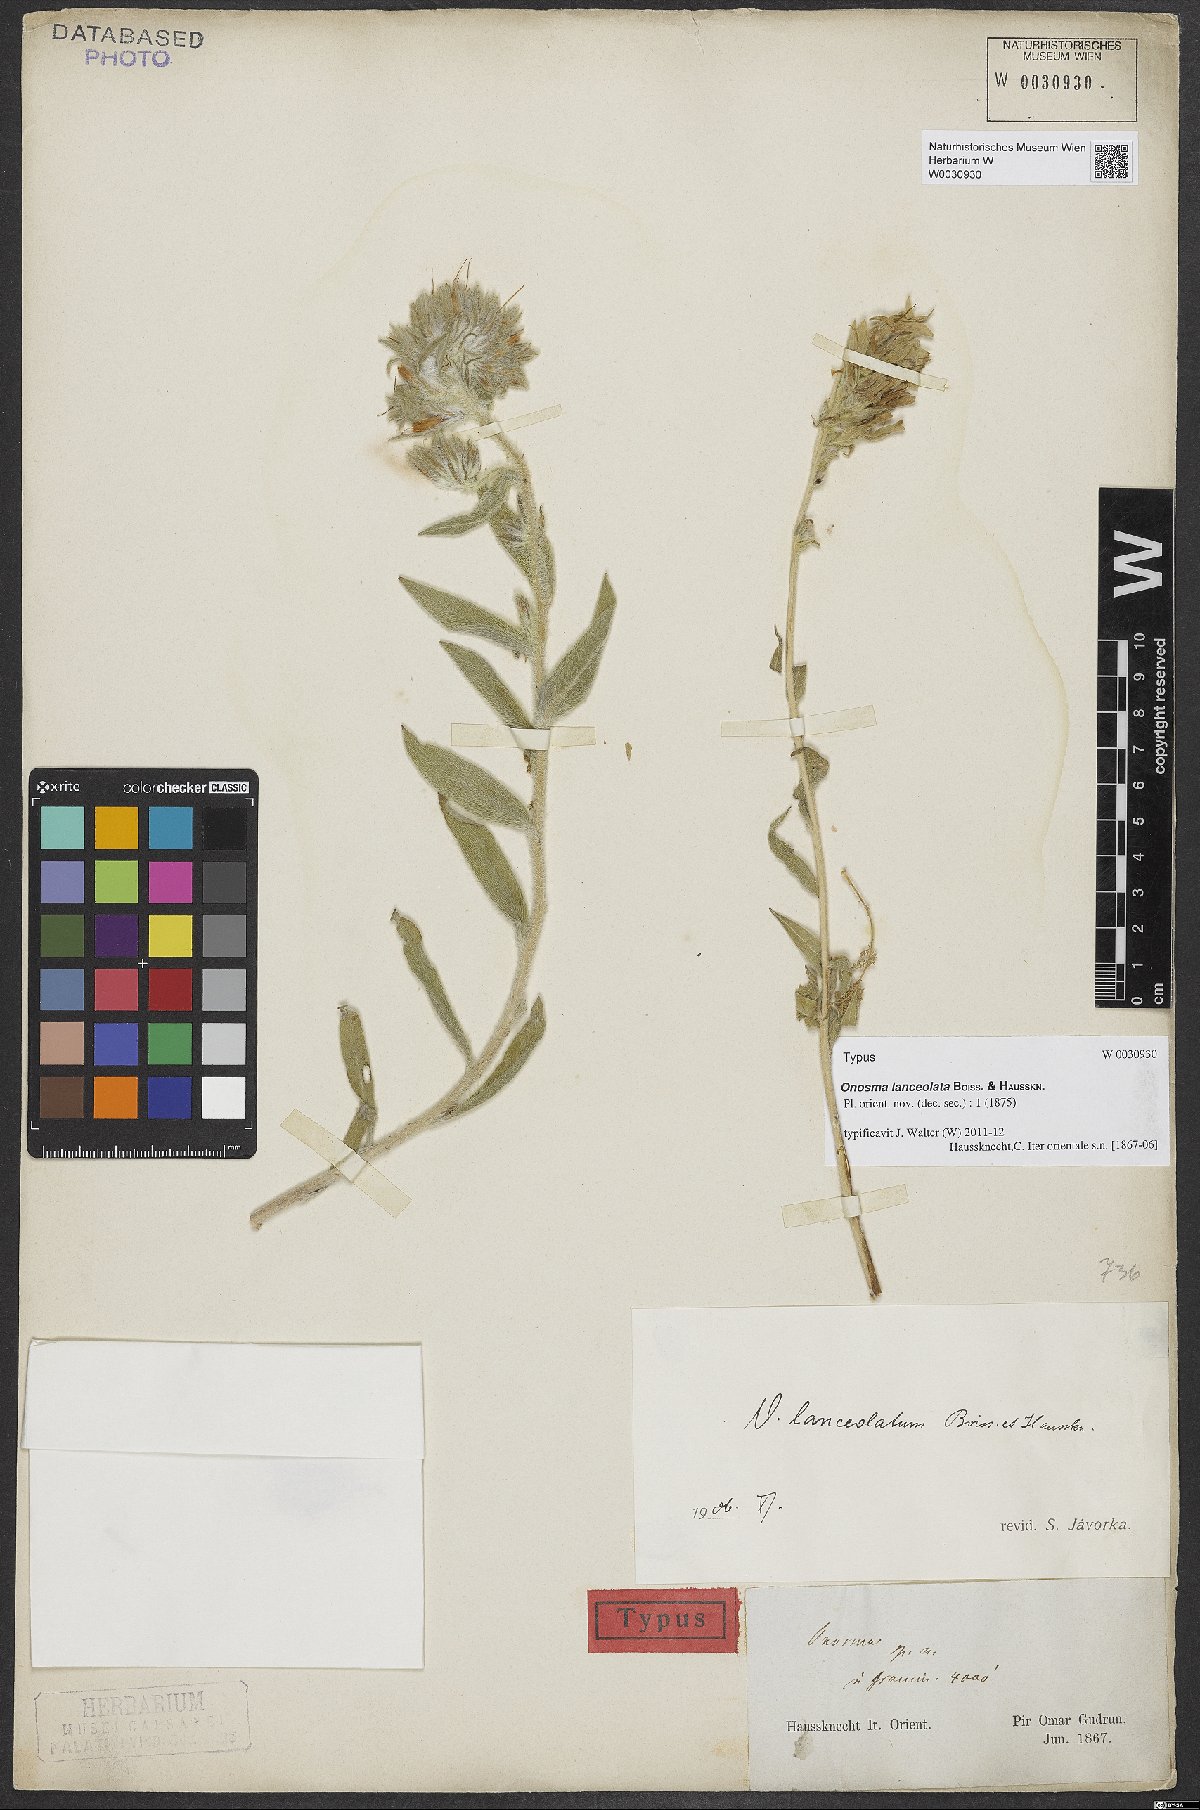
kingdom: Plantae
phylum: Tracheophyta
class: Magnoliopsida
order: Boraginales
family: Boraginaceae
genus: Onosma
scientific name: Onosma lanceolata
